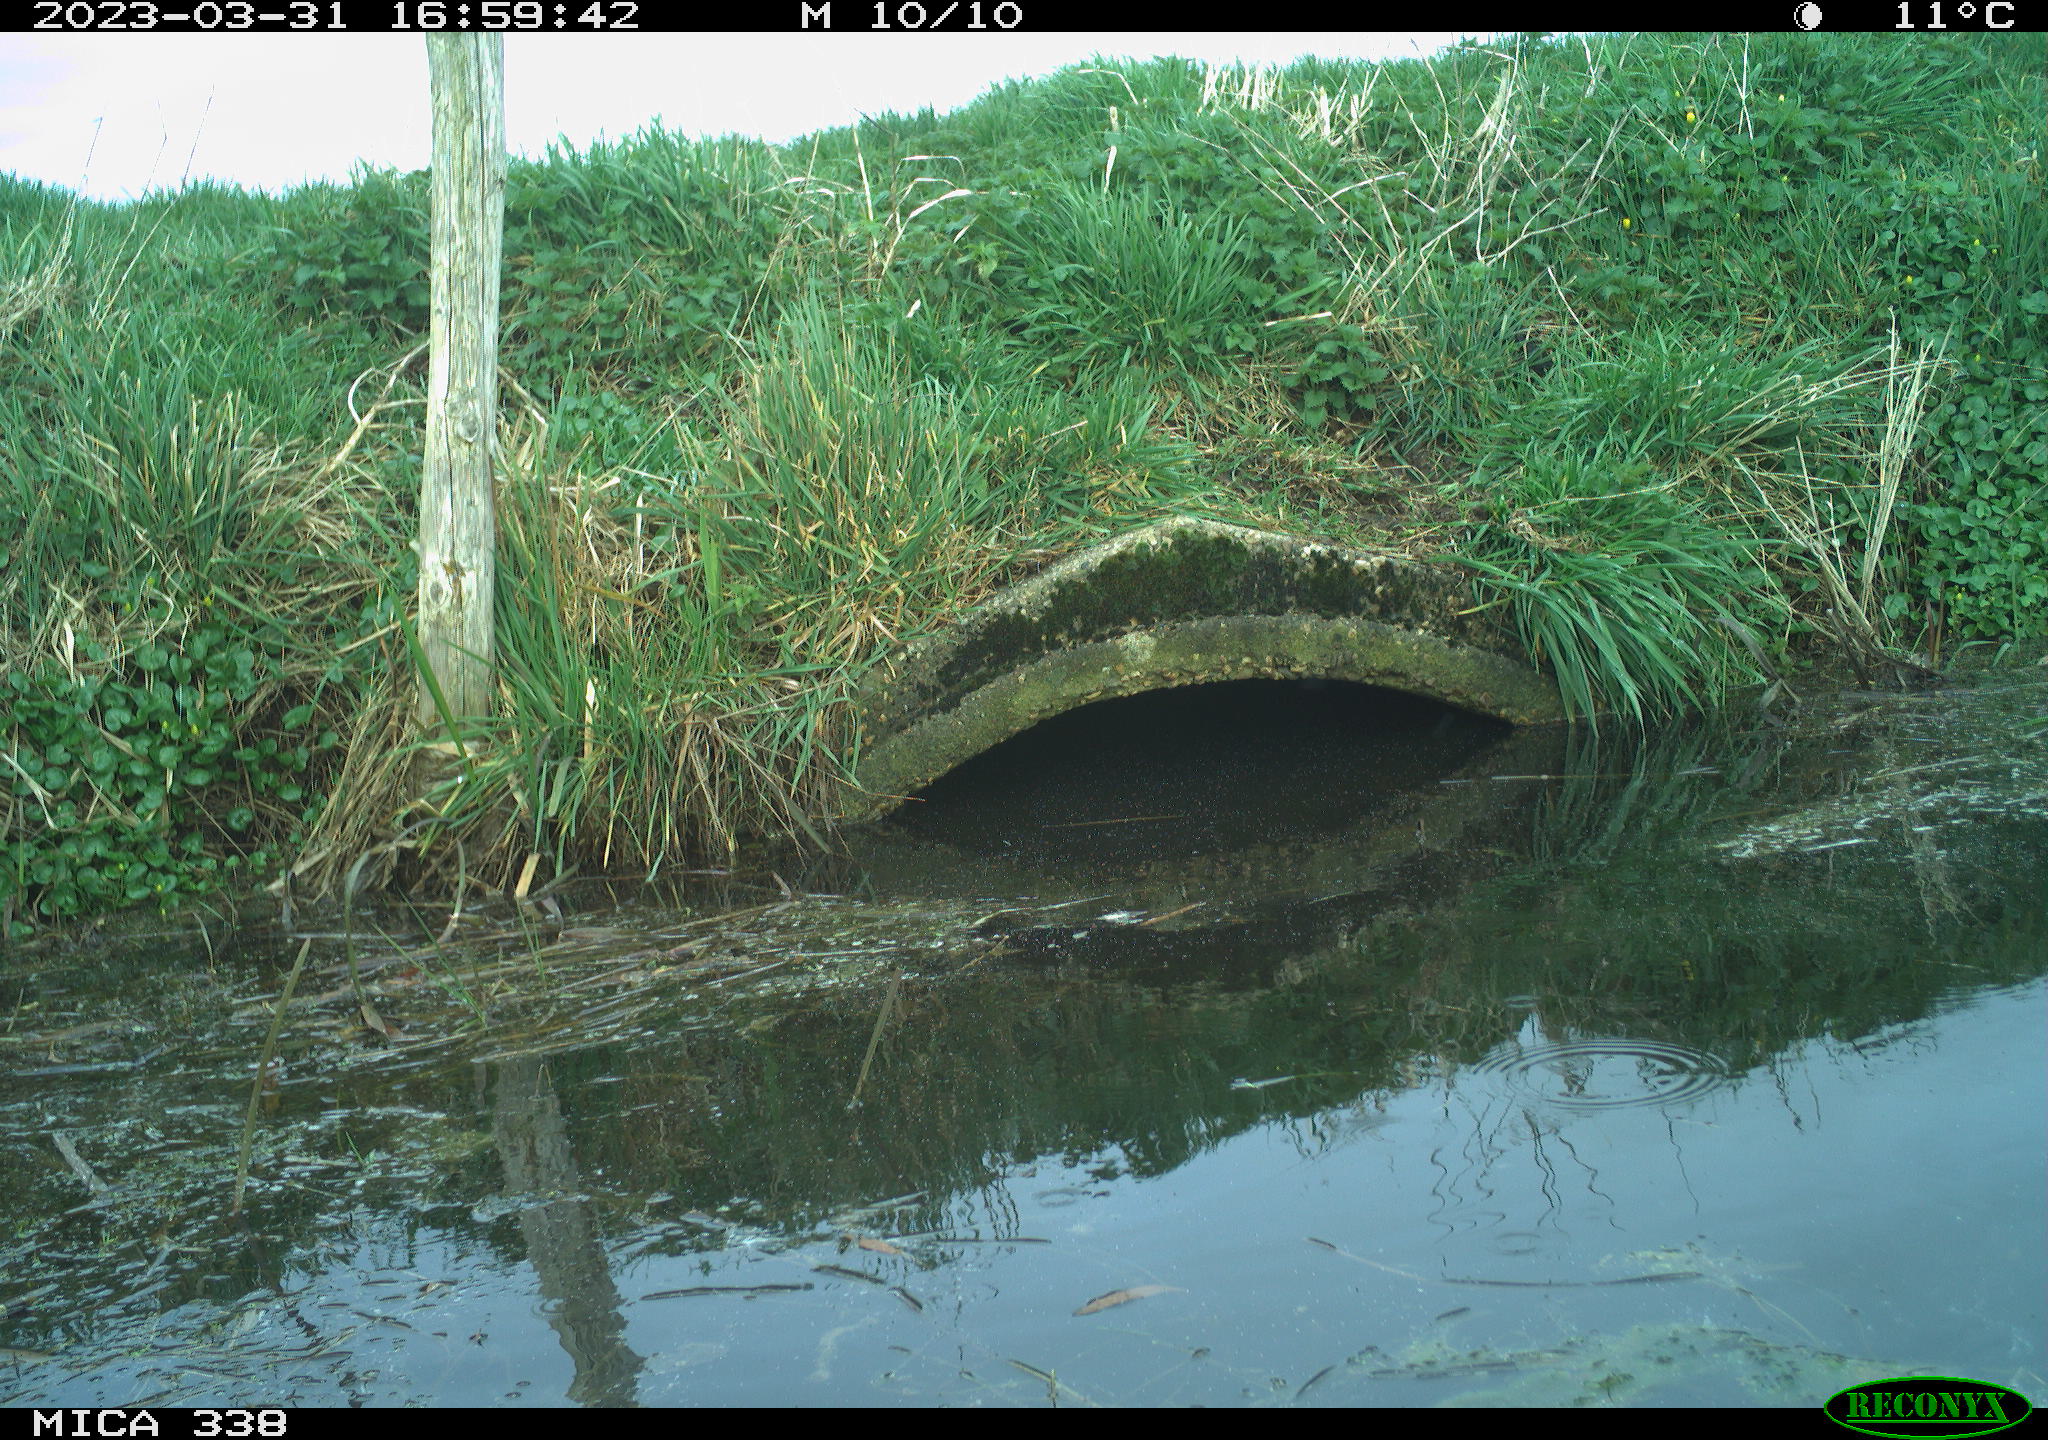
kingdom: Animalia
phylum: Chordata
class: Aves
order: Anseriformes
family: Anatidae
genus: Anas
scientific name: Anas
